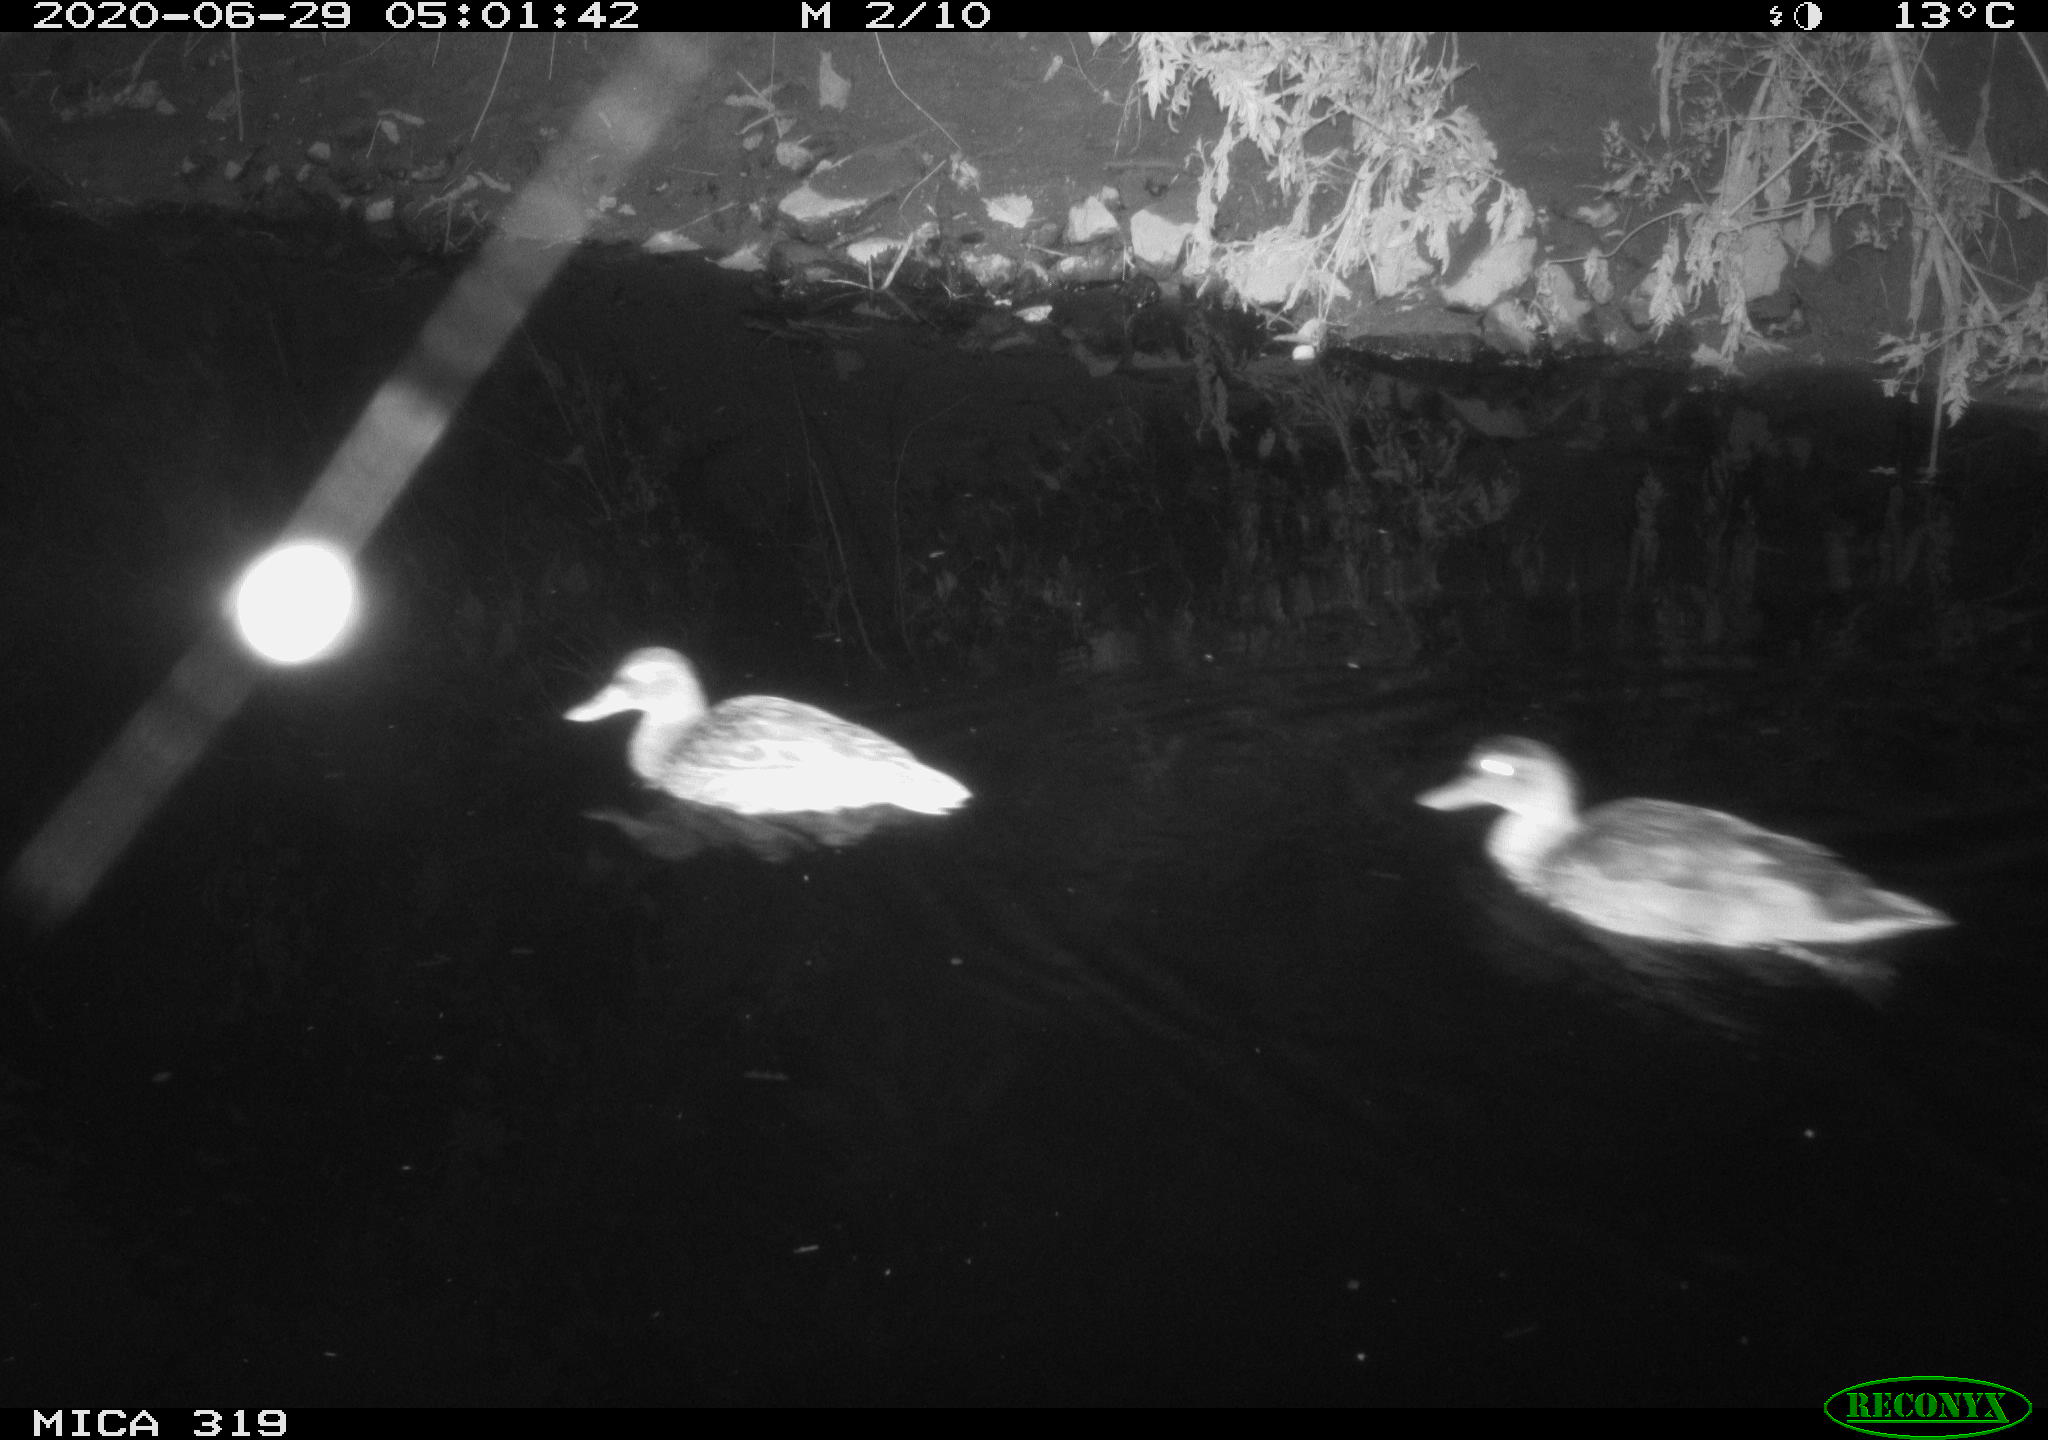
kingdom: Animalia
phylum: Chordata
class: Aves
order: Anseriformes
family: Anatidae
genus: Anas
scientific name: Anas platyrhynchos
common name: Mallard
